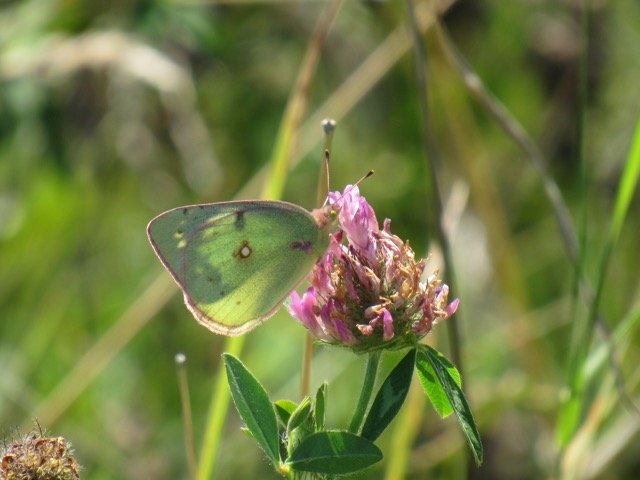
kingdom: Animalia
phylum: Arthropoda
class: Insecta
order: Lepidoptera
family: Pieridae
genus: Colias
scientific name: Colias philodice
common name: Clouded Sulphur
